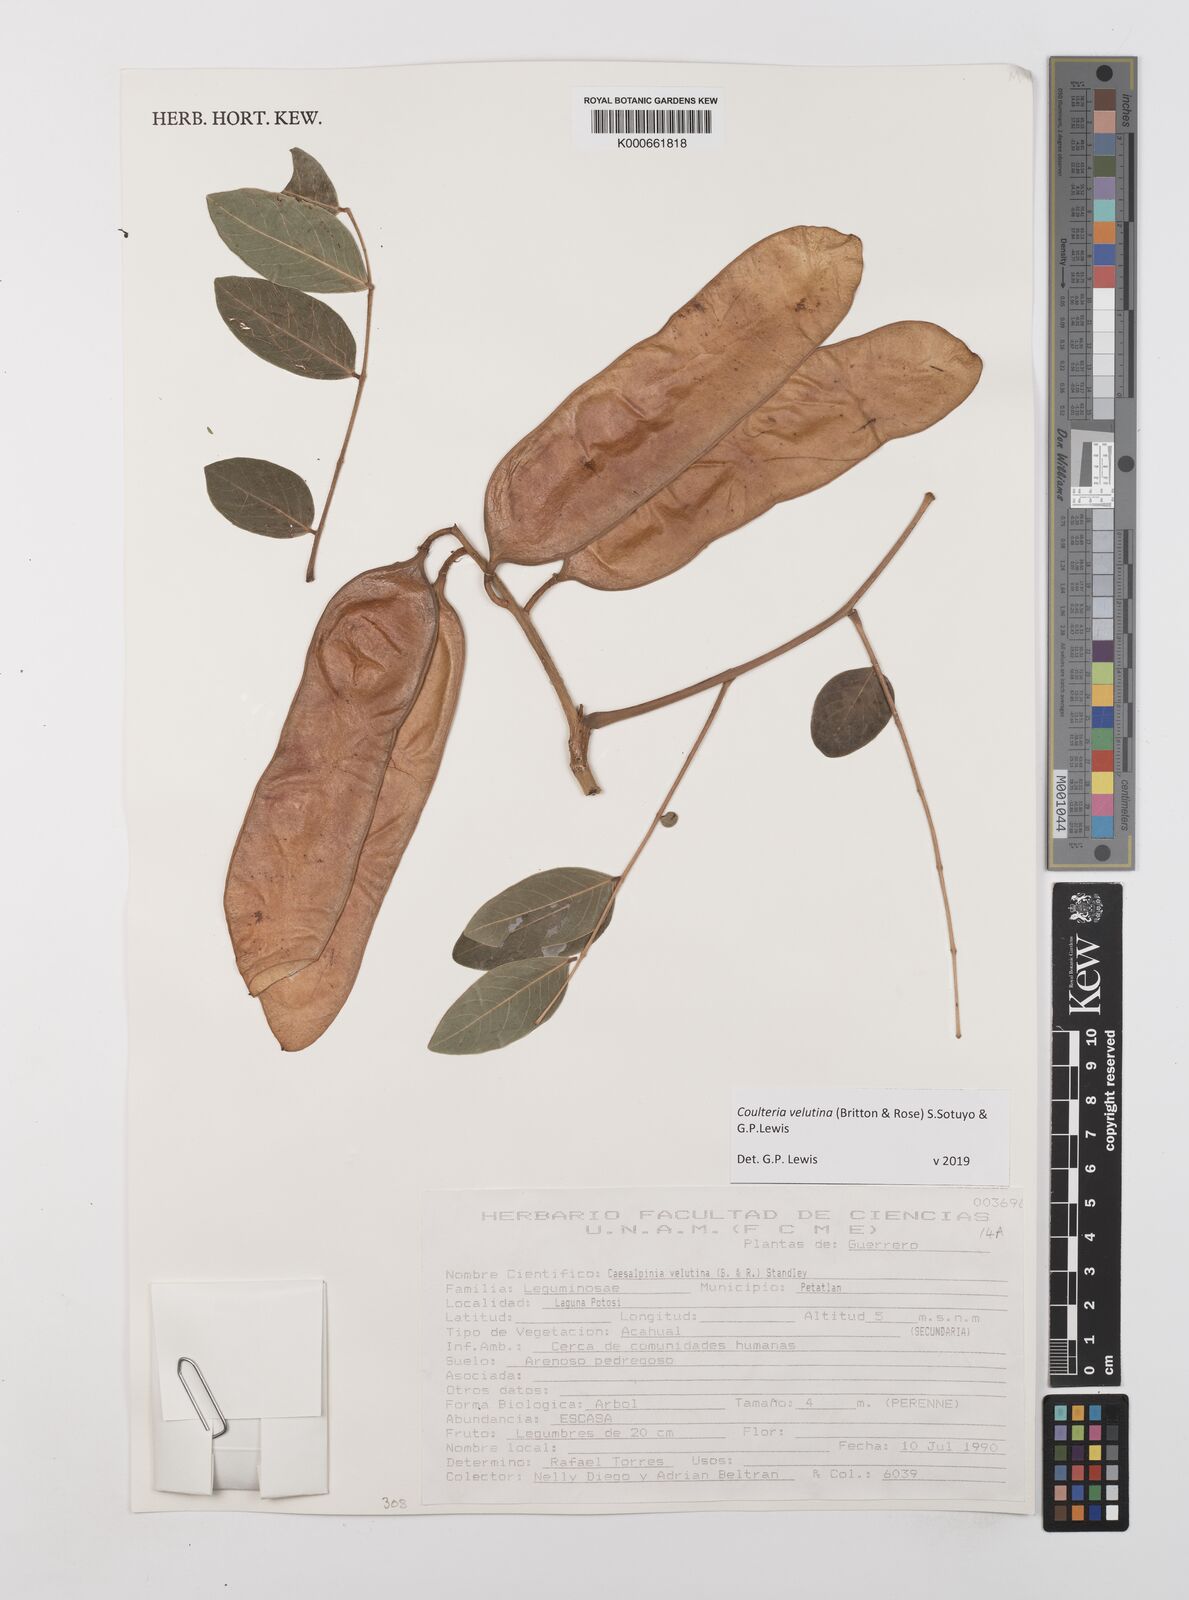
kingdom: Plantae
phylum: Tracheophyta
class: Magnoliopsida
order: Fabales
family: Fabaceae
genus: Coulteria
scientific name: Coulteria velutina
